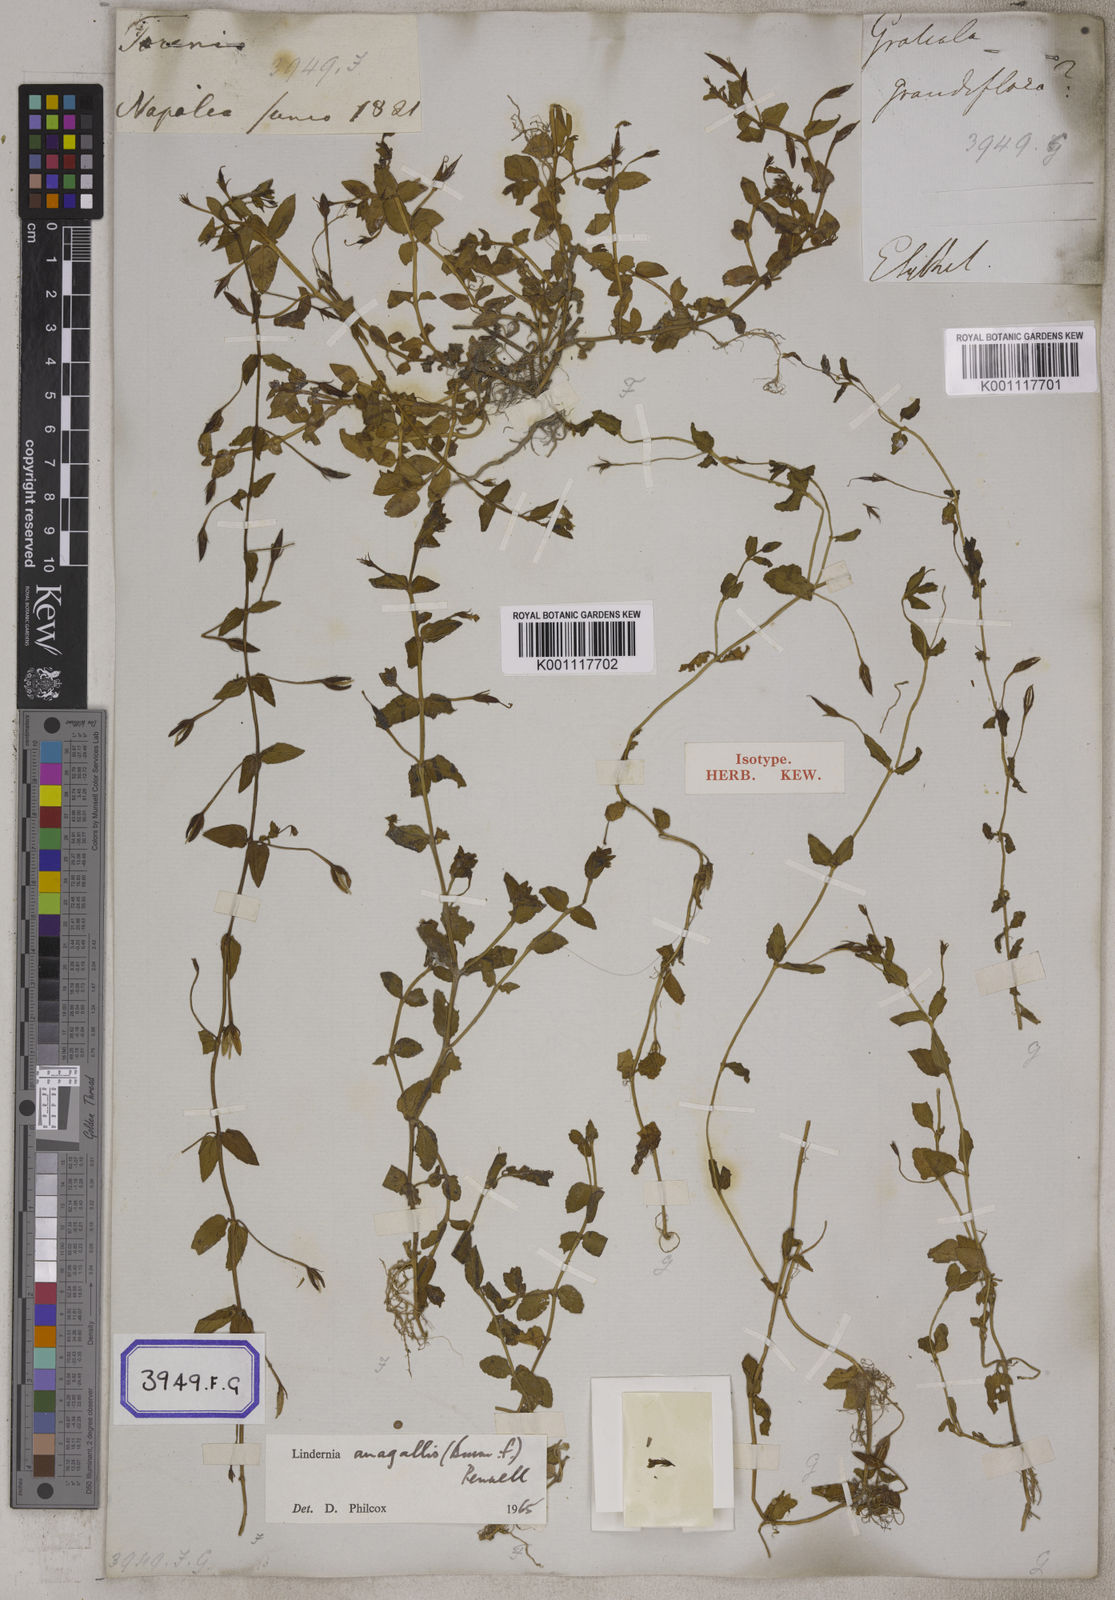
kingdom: Plantae
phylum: Tracheophyta
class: Magnoliopsida
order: Lamiales
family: Linderniaceae
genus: Torenia
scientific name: Torenia anagallis
